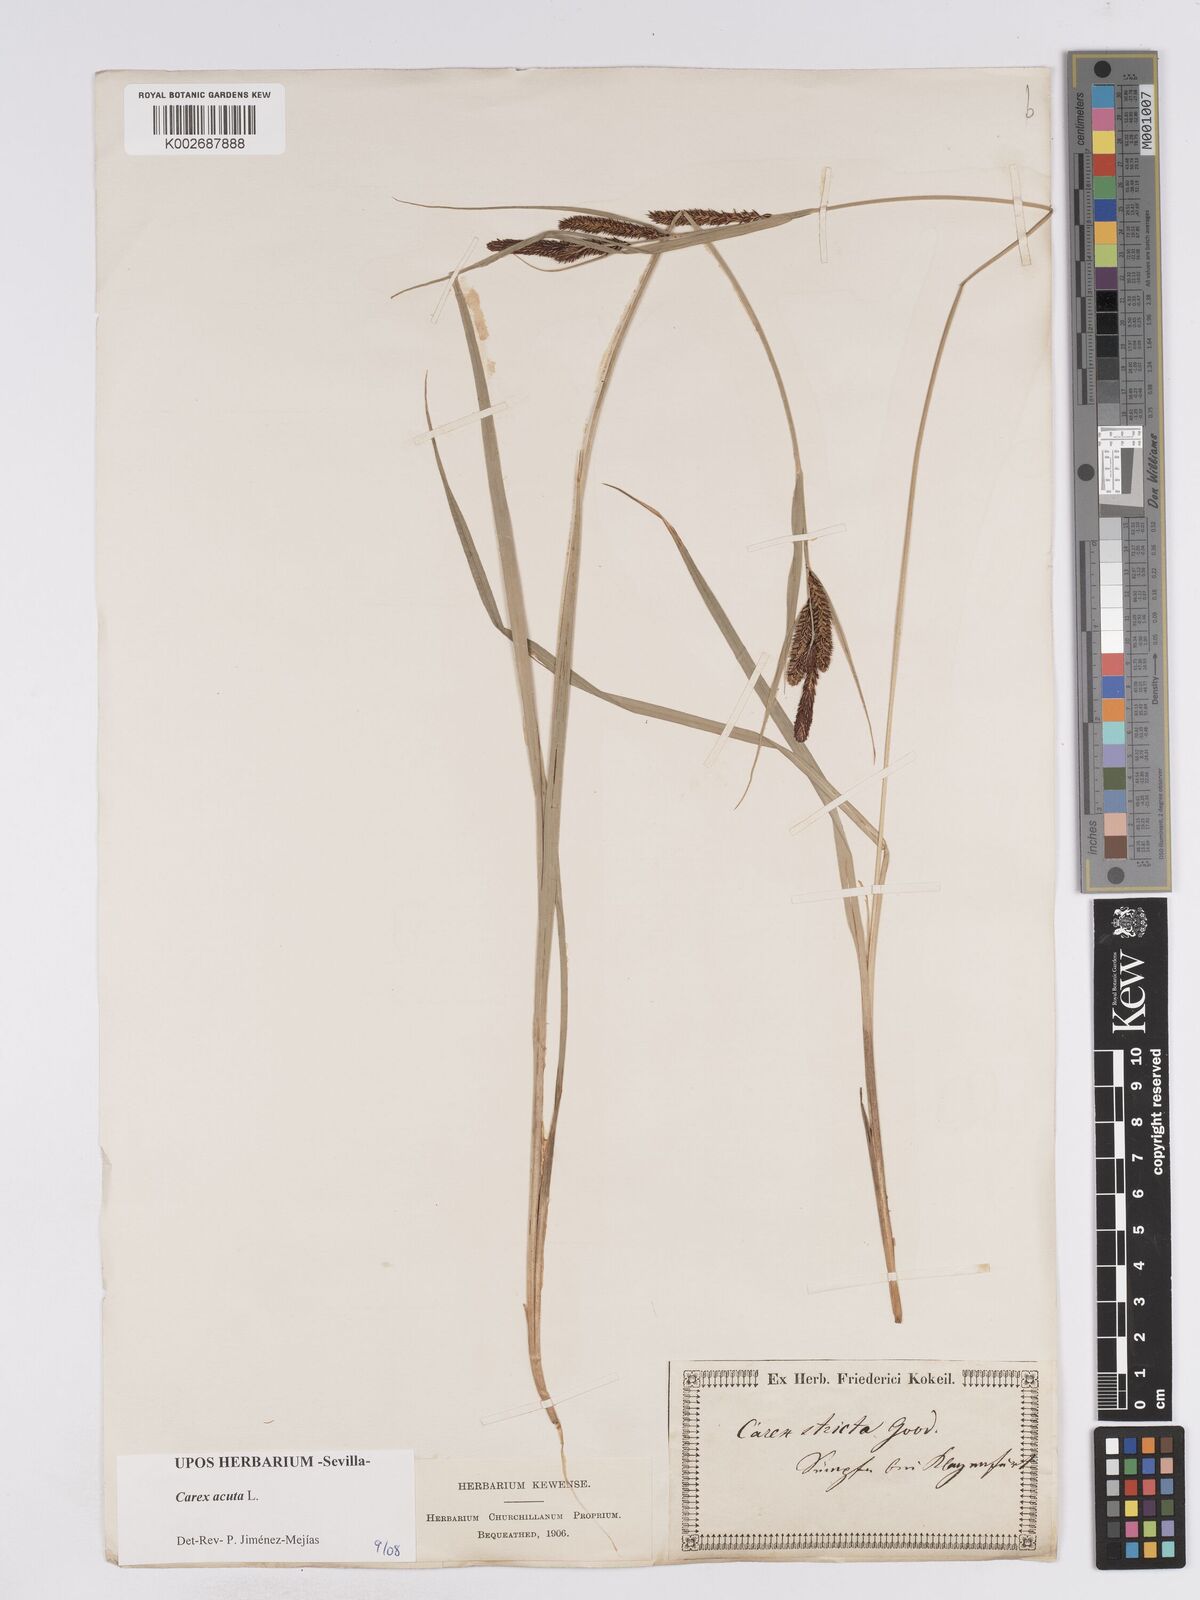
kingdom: Plantae
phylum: Tracheophyta
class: Liliopsida
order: Poales
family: Cyperaceae
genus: Carex
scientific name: Carex acuta
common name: Slender tufted-sedge
